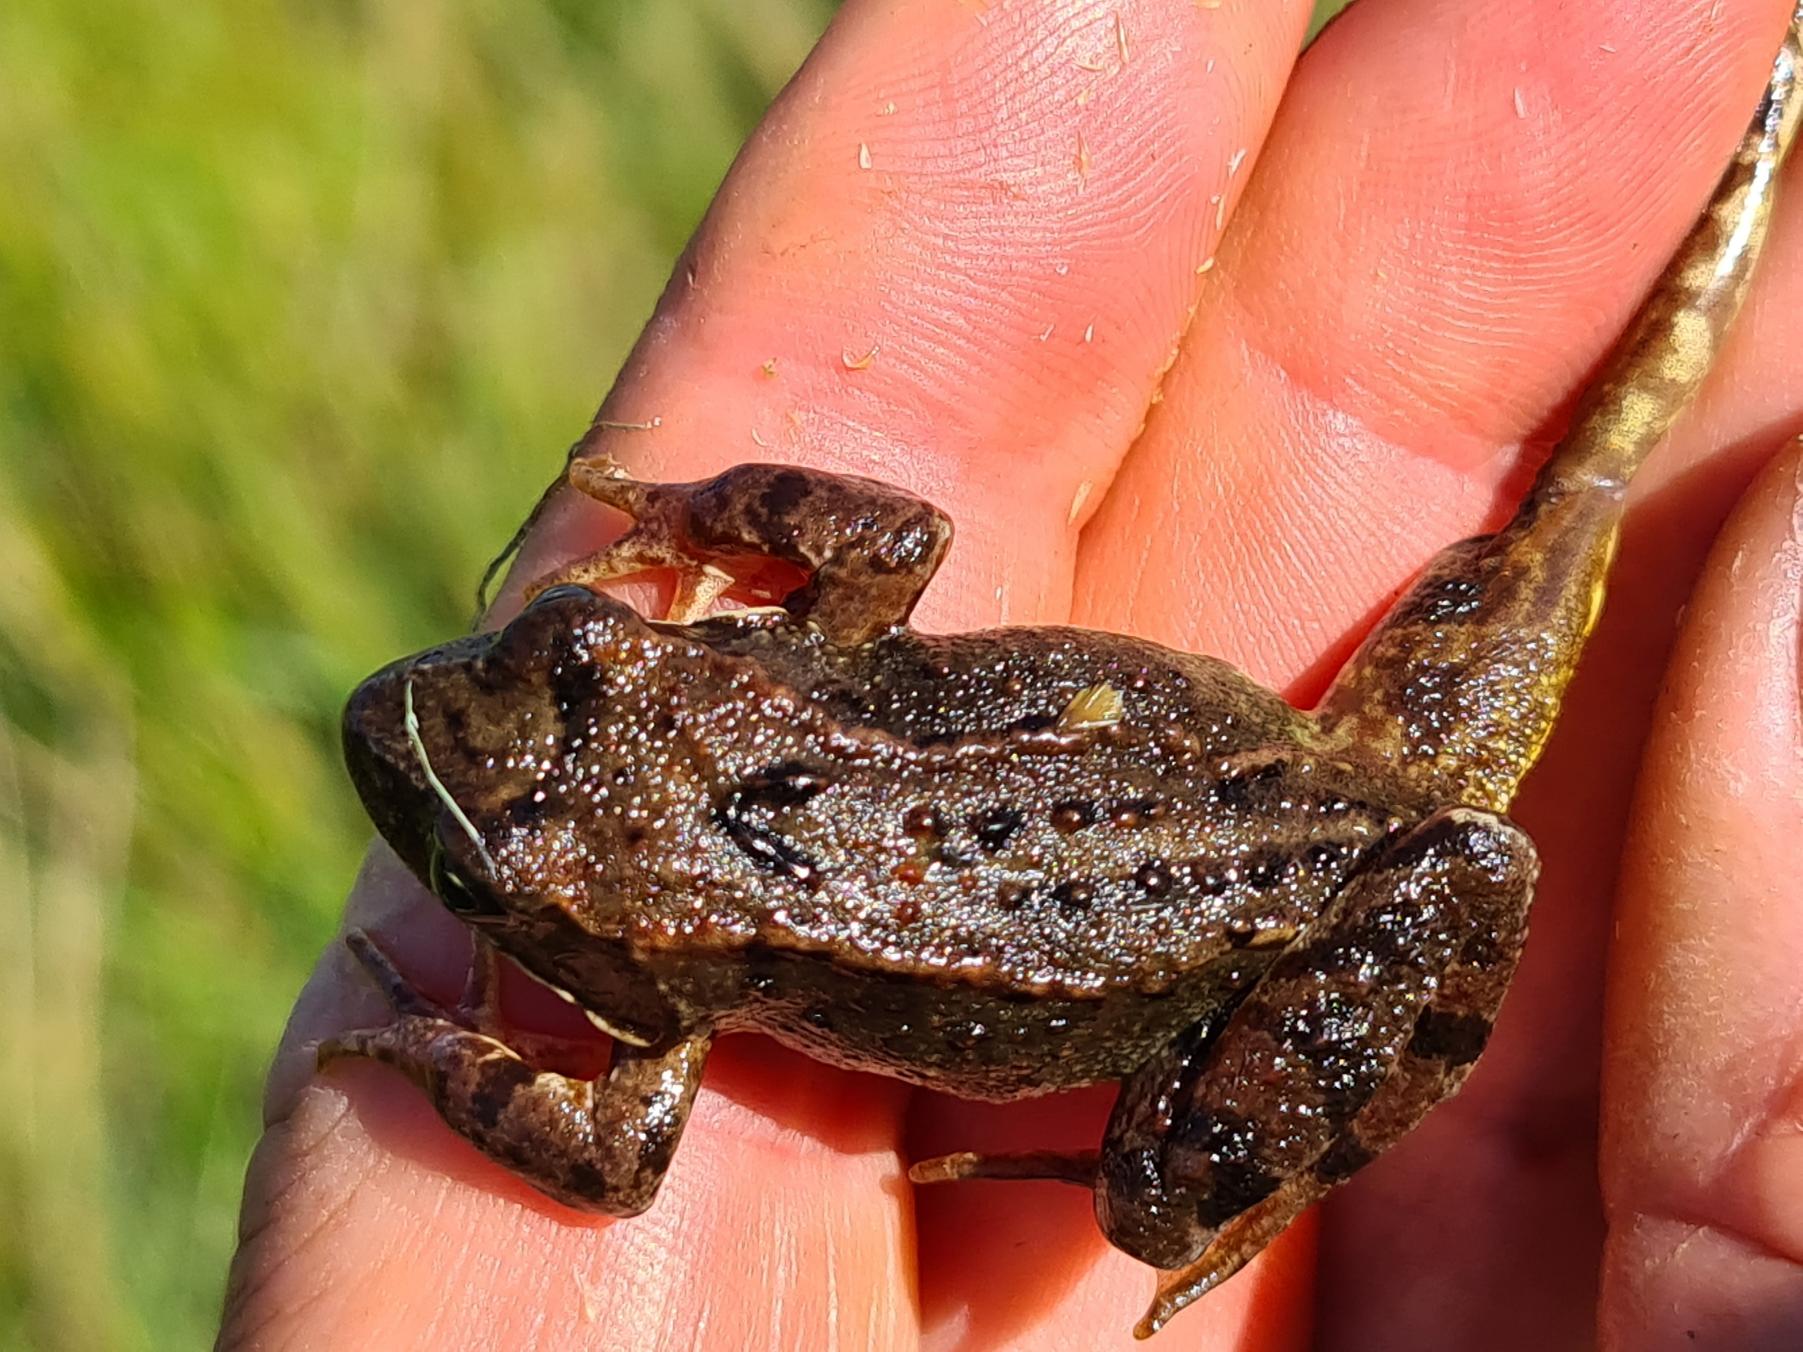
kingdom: Animalia
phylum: Chordata
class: Amphibia
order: Anura
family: Ranidae
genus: Rana
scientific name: Rana temporaria
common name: Butsnudet frø
